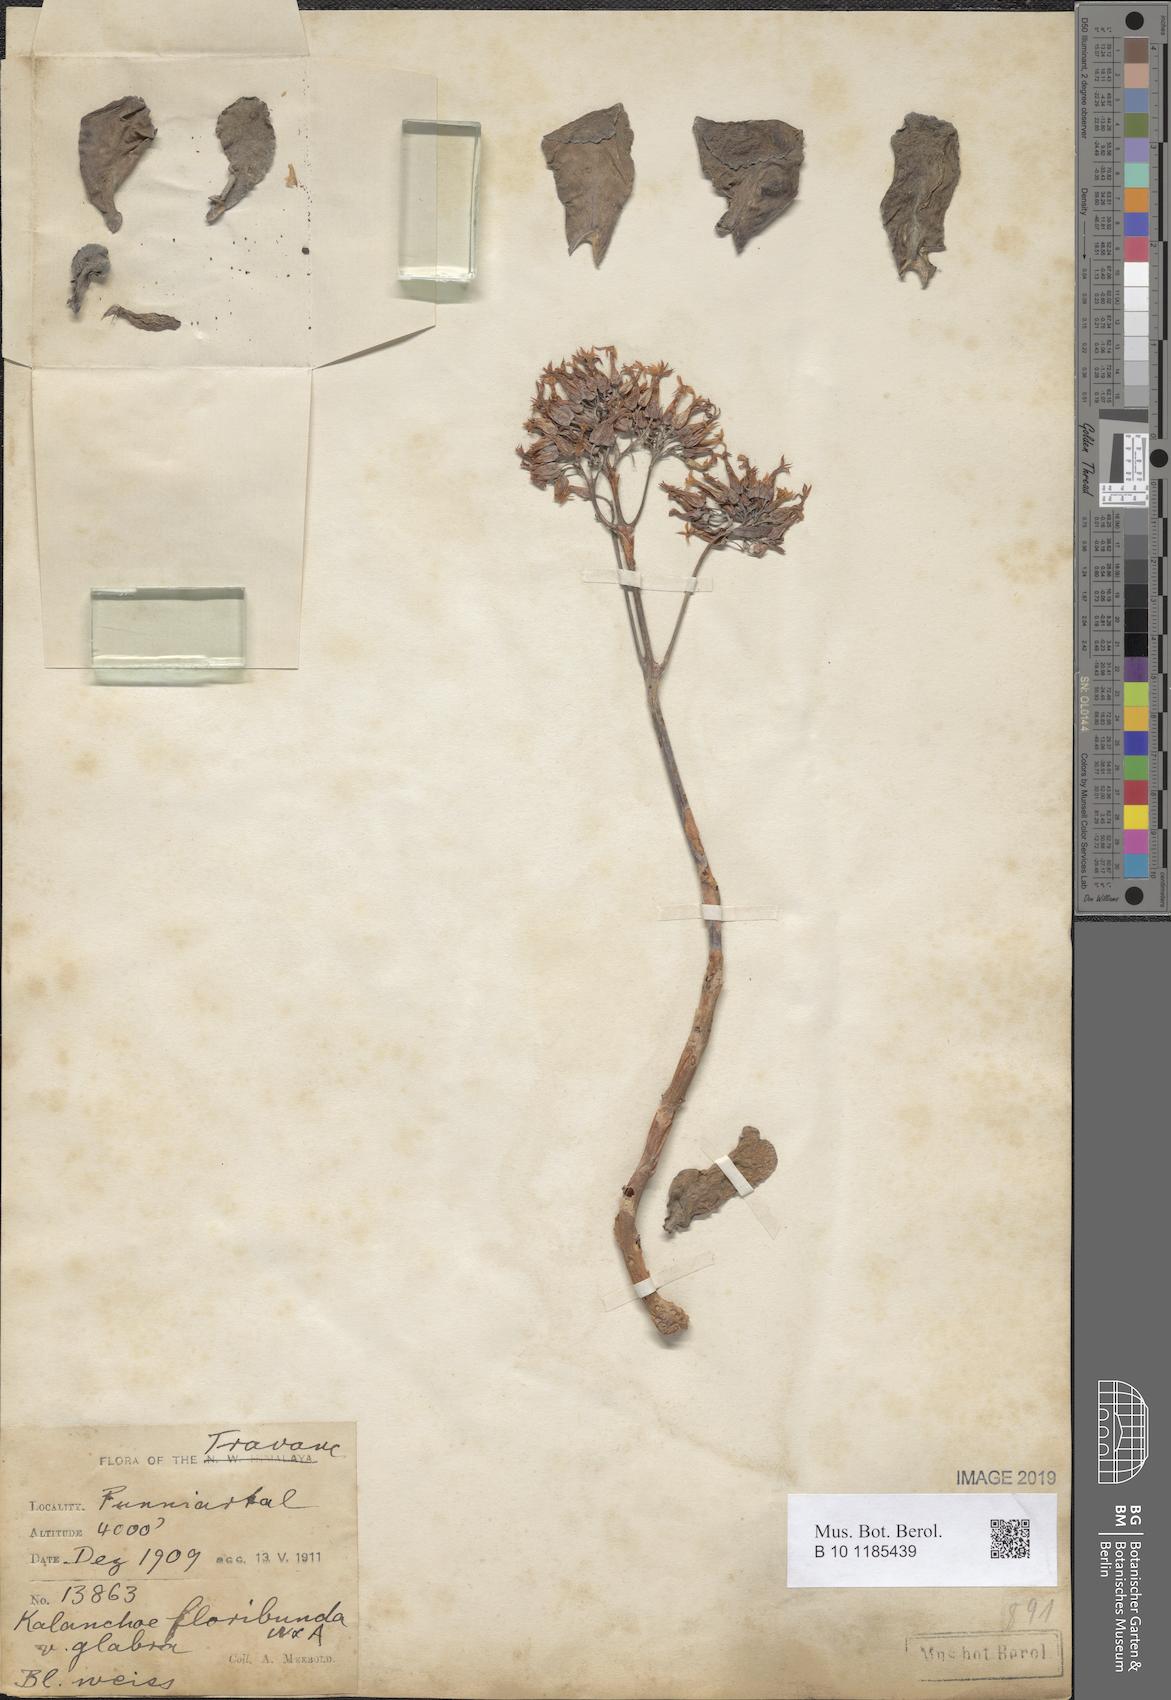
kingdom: Plantae
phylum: Tracheophyta
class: Magnoliopsida
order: Saxifragales
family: Crassulaceae
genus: Kalanchoe
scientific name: Kalanchoe floribunda
